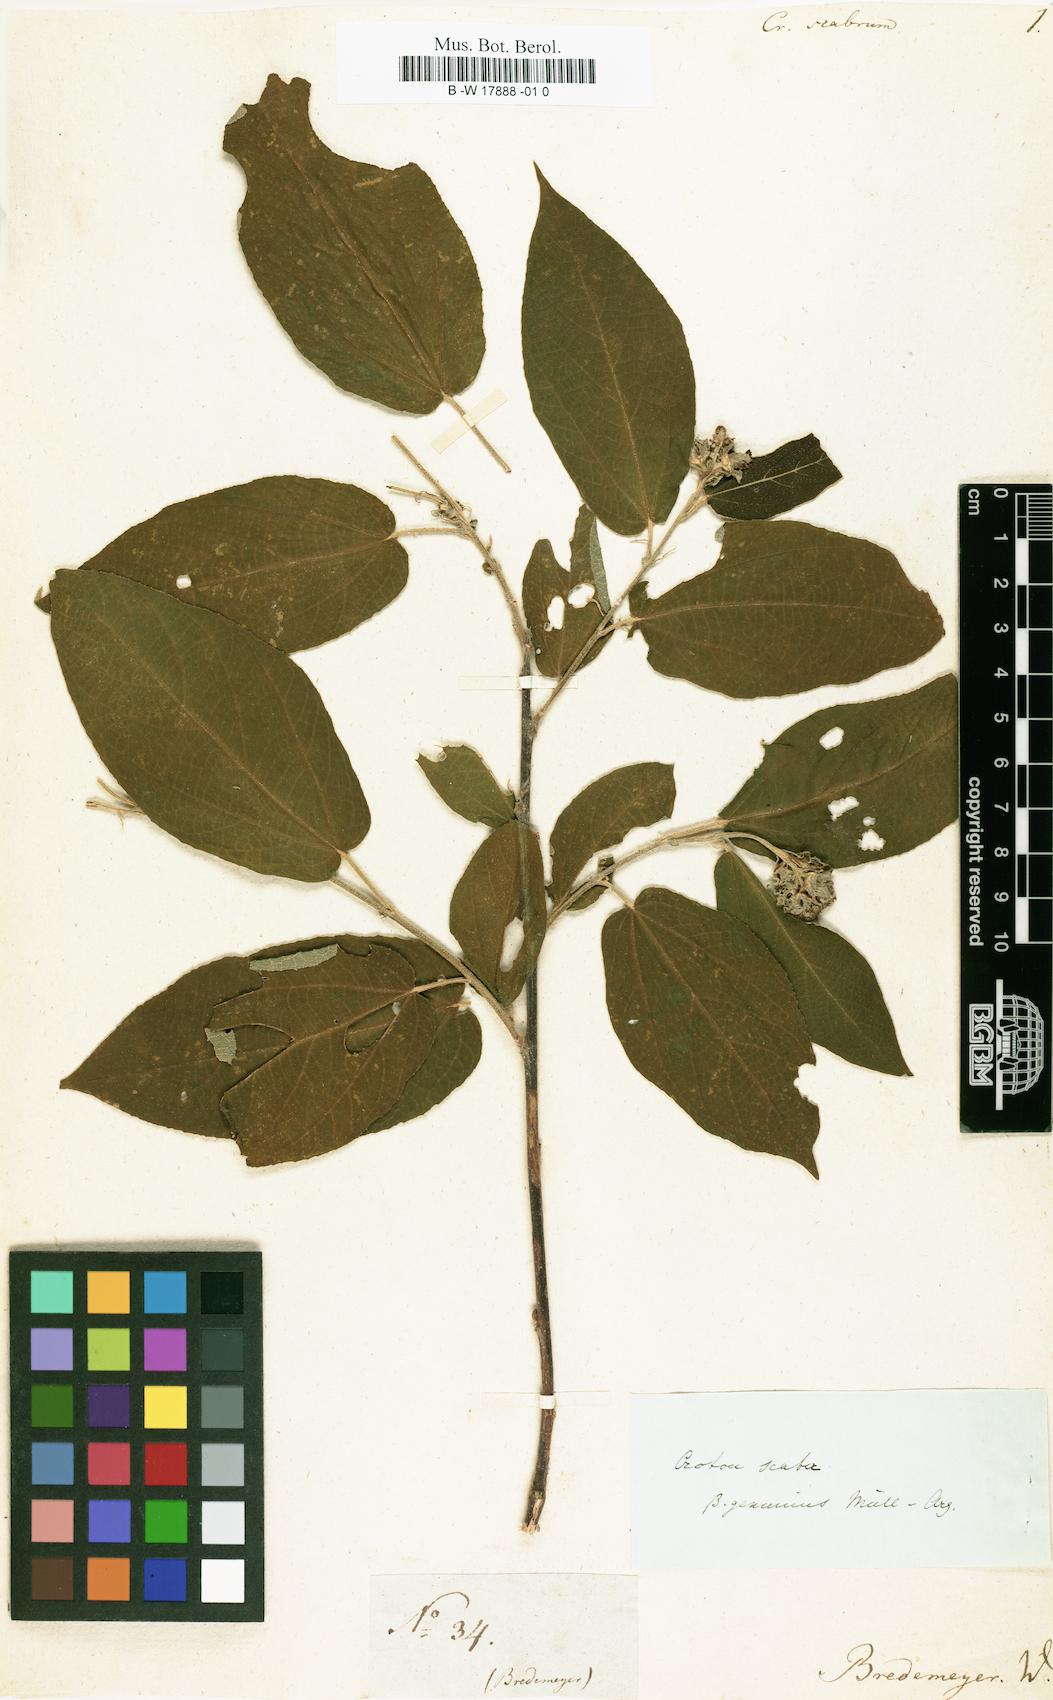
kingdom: Plantae
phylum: Tracheophyta
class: Magnoliopsida
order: Malpighiales
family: Euphorbiaceae
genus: Croton
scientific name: Croton scaber
